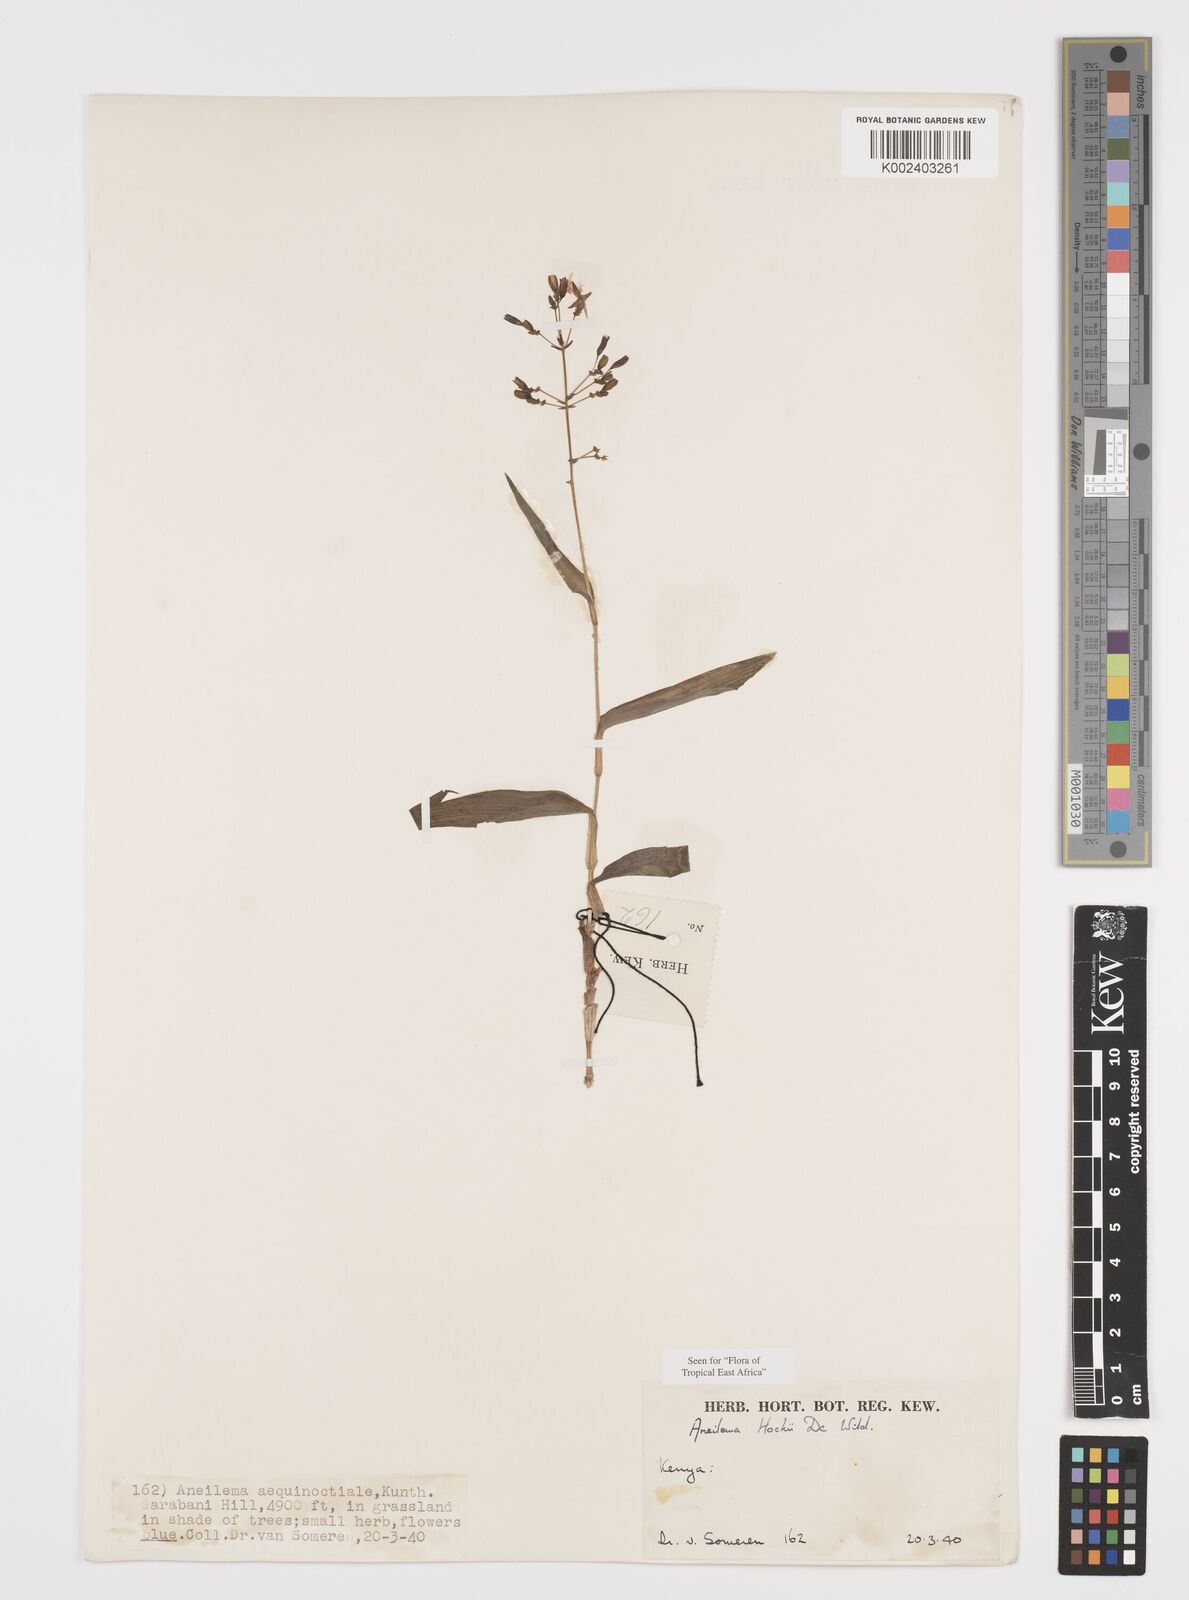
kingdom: Plantae
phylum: Tracheophyta
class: Liliopsida
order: Commelinales
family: Commelinaceae
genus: Aneilema
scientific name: Aneilema hockii
